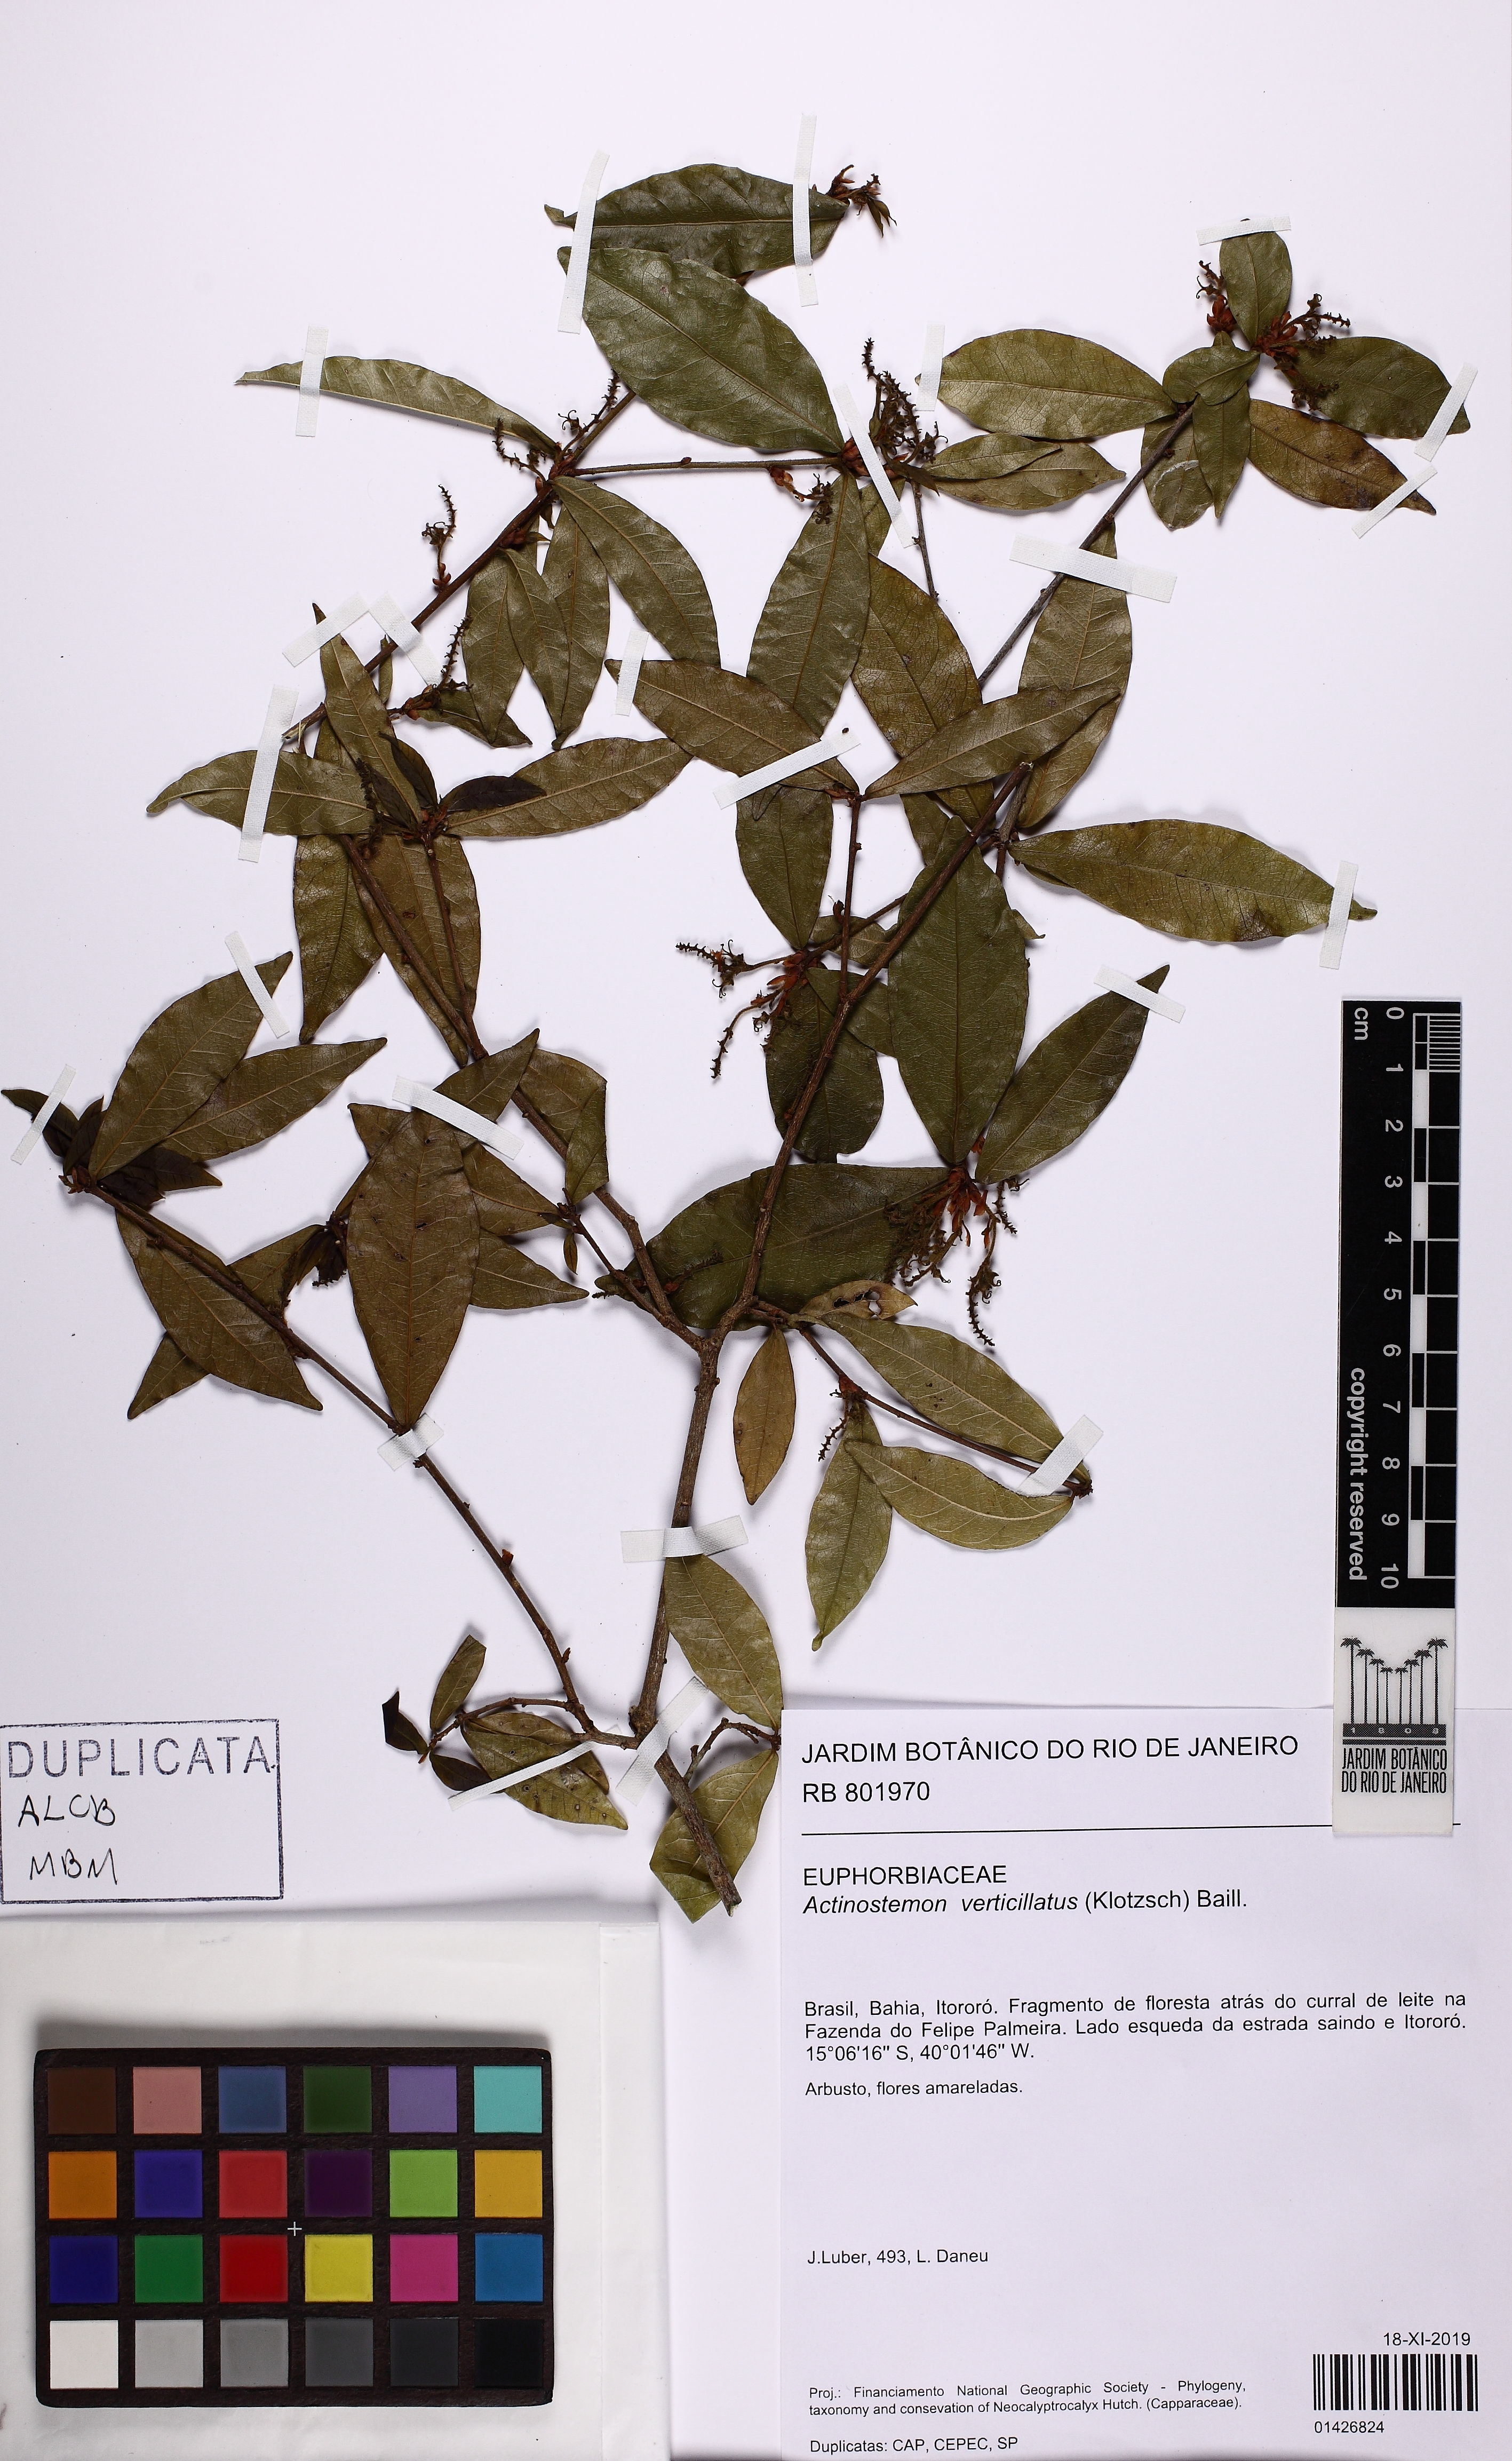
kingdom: Plantae
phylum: Tracheophyta
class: Magnoliopsida
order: Malpighiales
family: Euphorbiaceae
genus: Actinostemon
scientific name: Actinostemon verticillatus
